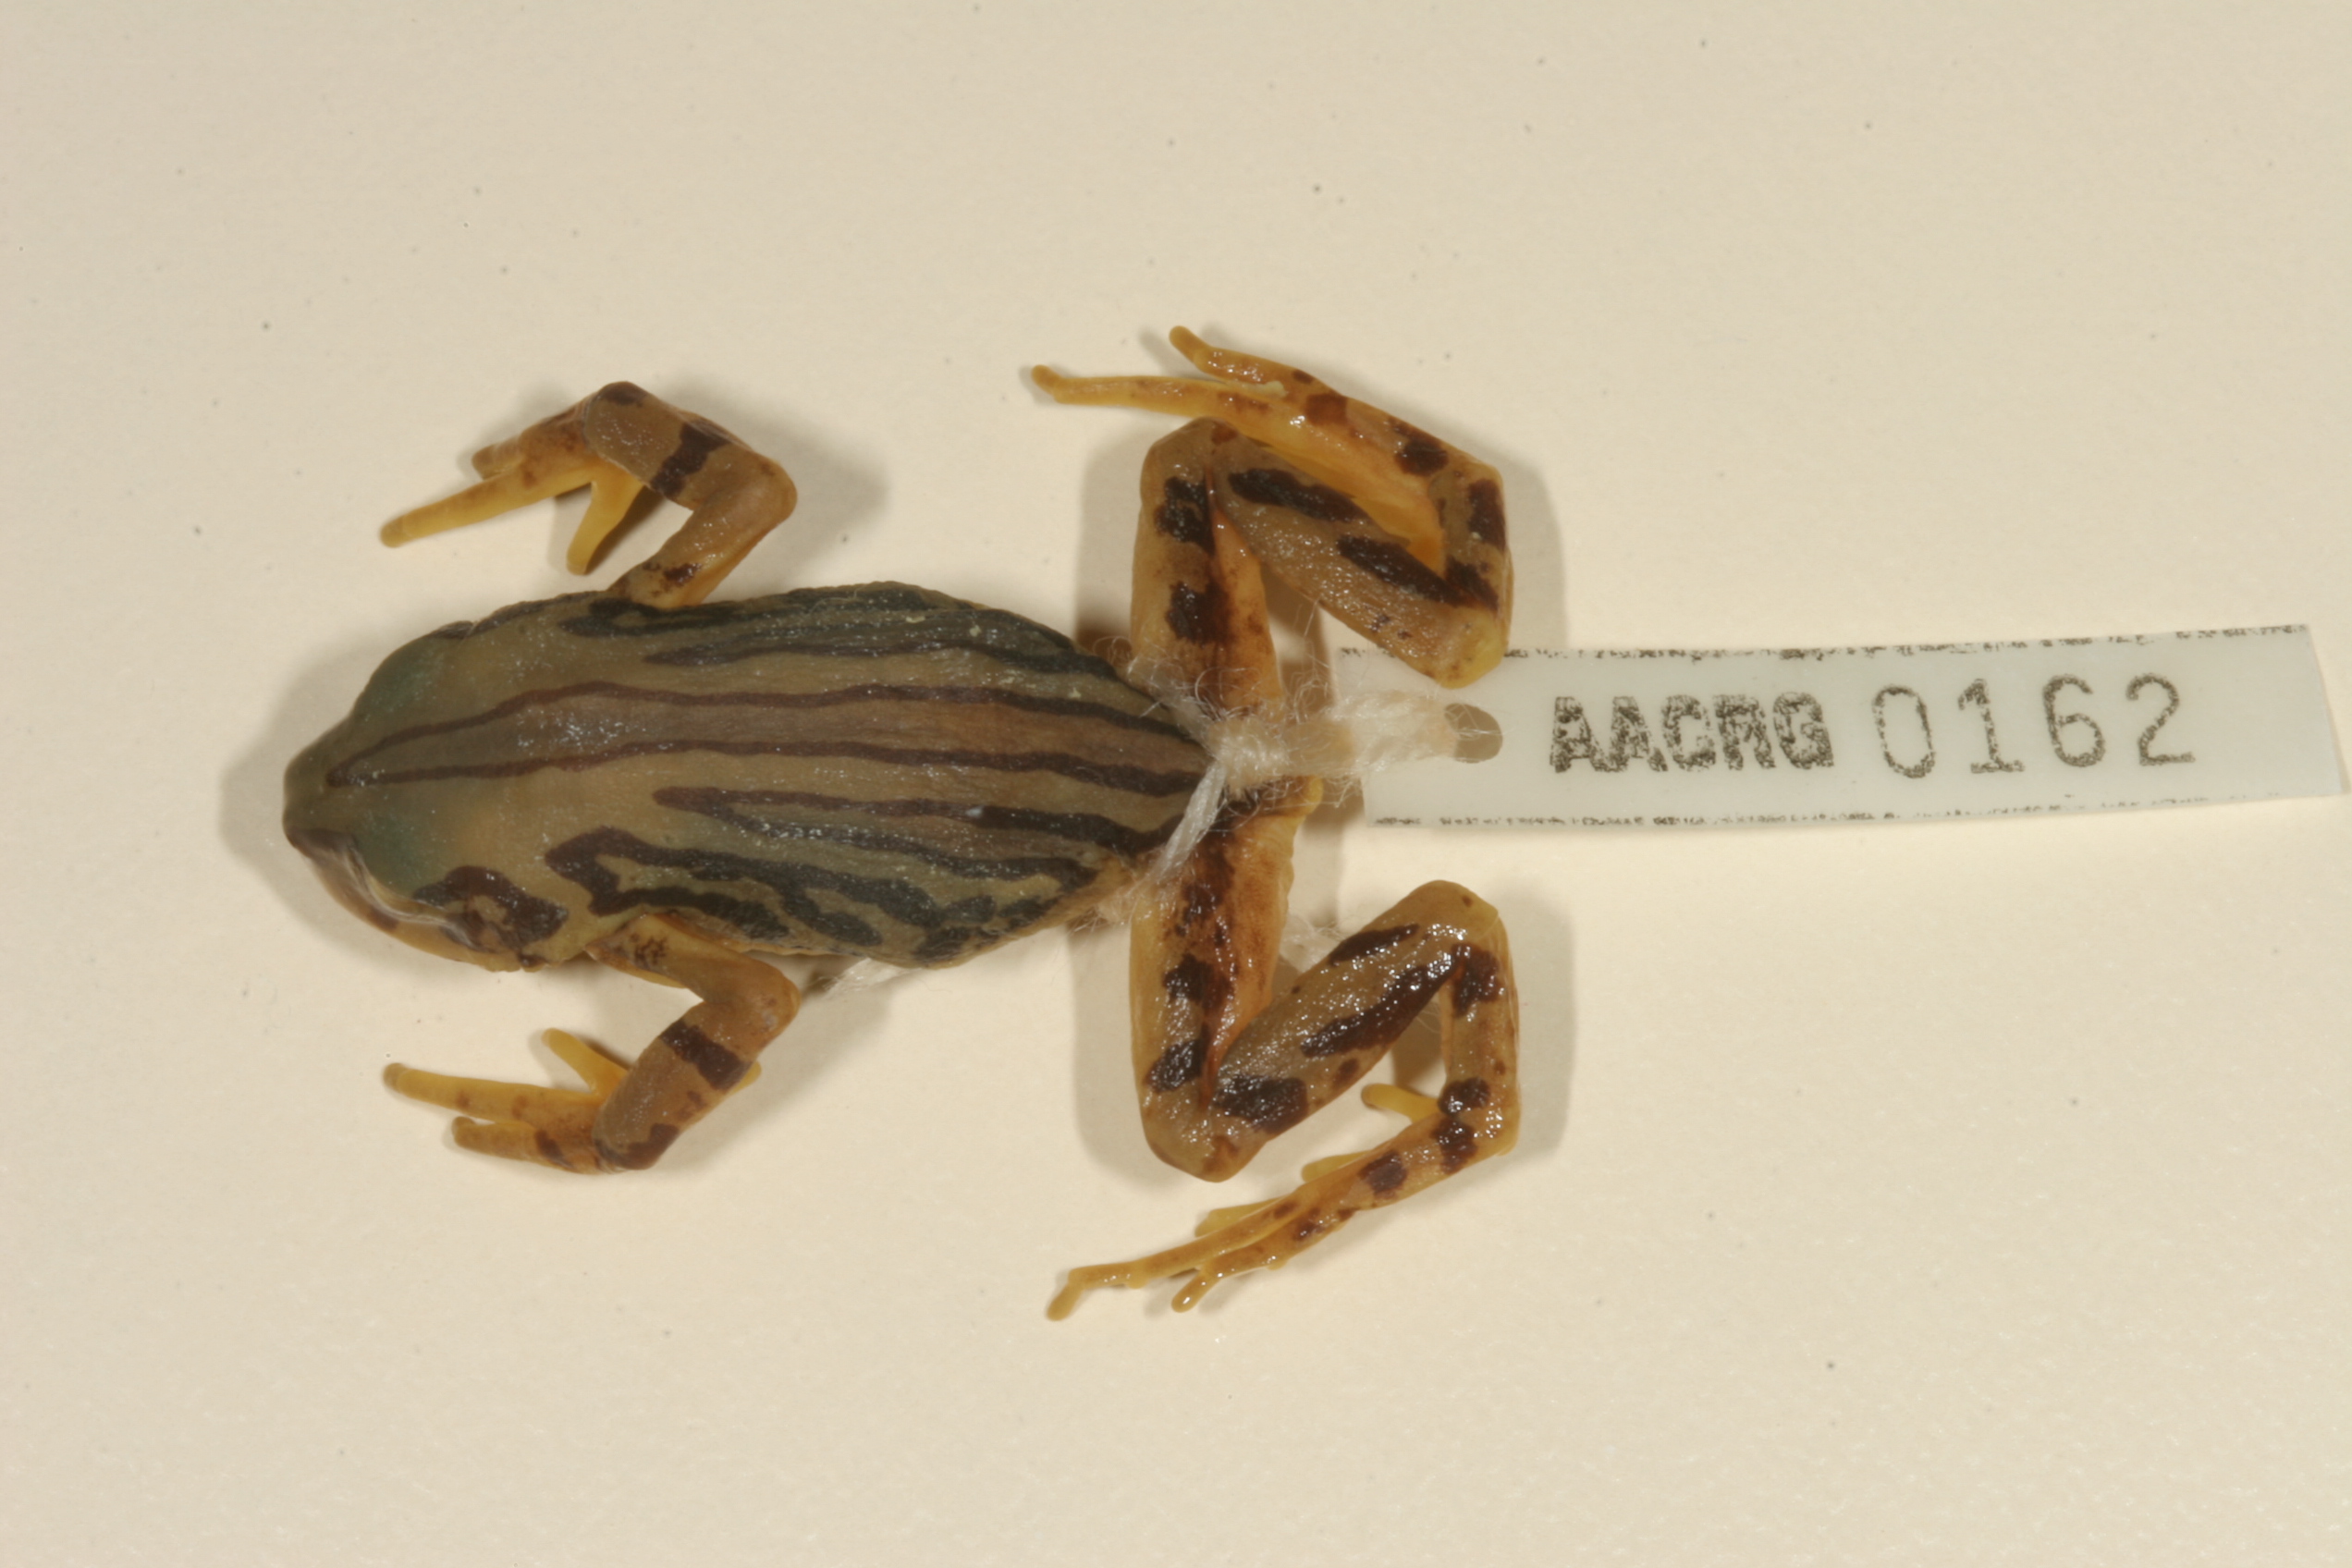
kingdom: Animalia
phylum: Chordata
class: Amphibia
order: Anura
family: Hyperoliidae
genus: Semnodactylus
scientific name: Semnodactylus wealii
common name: Weal's frog
